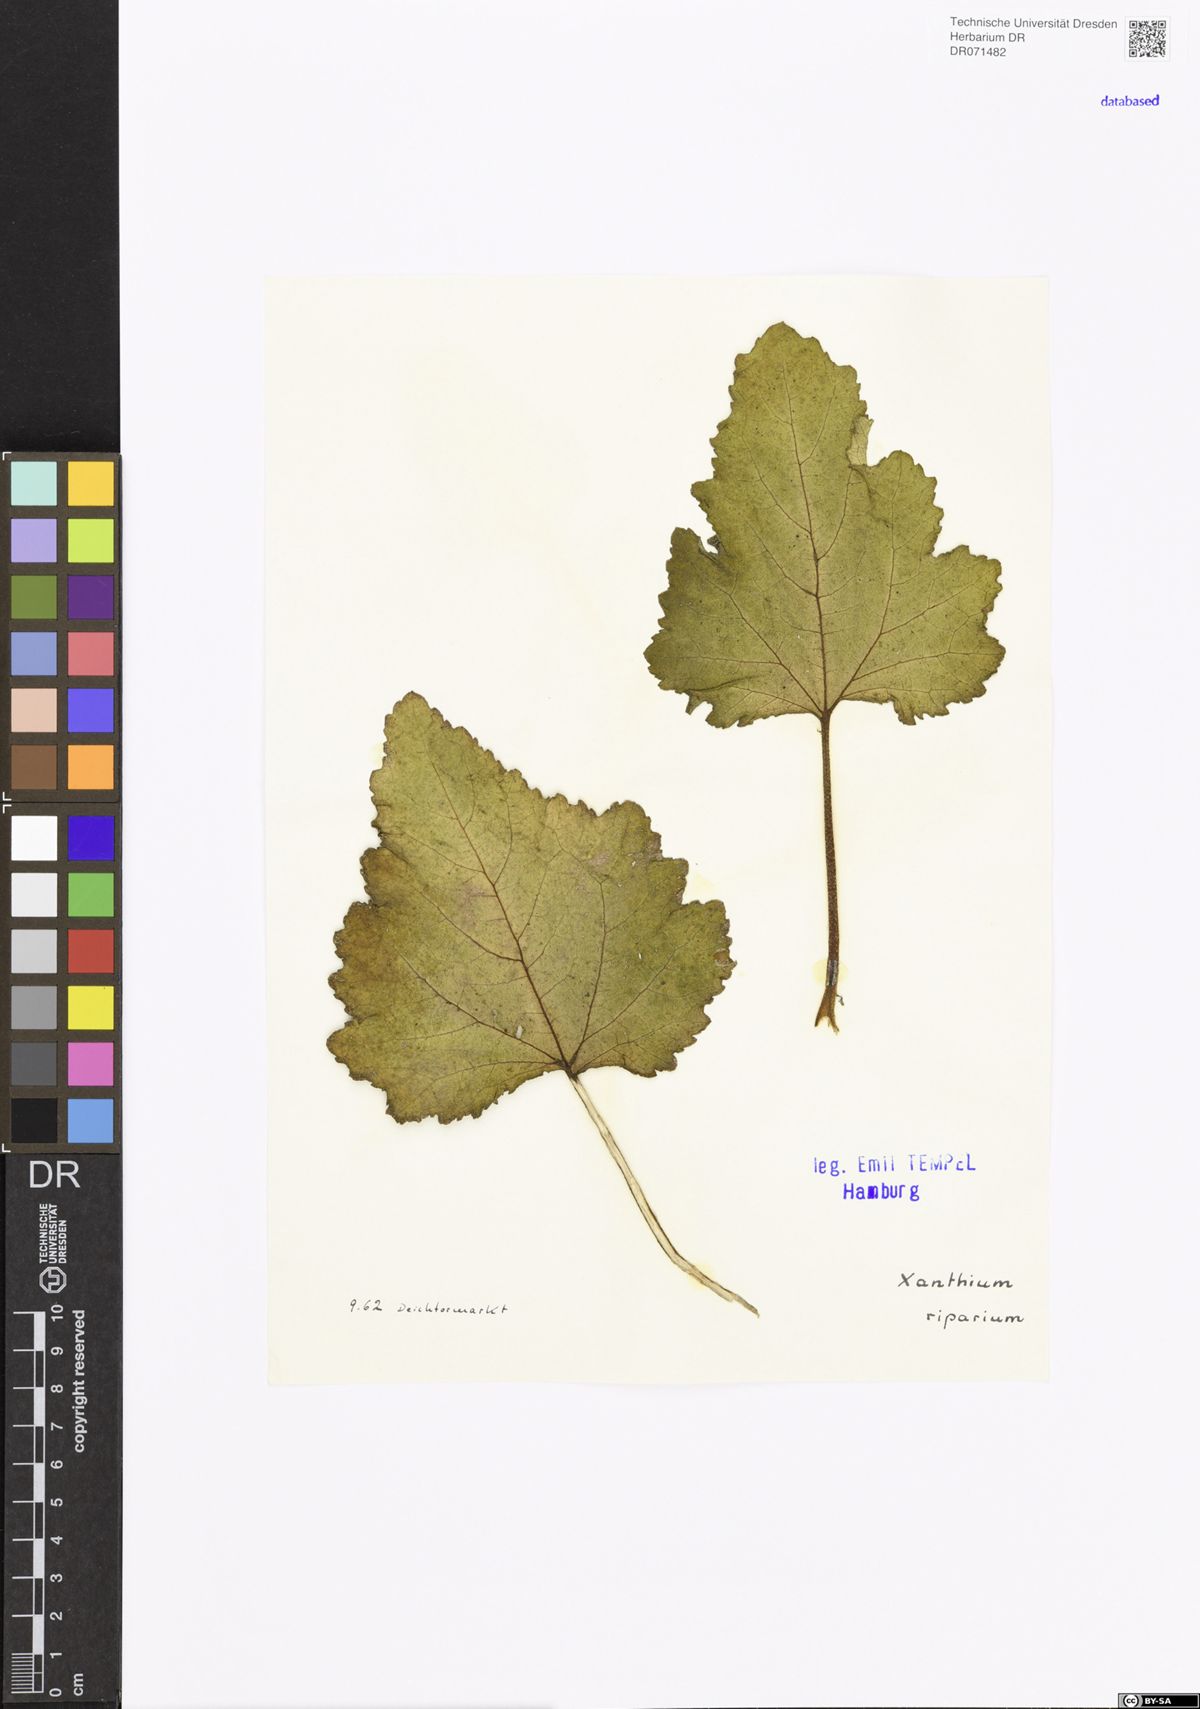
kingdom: Plantae
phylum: Tracheophyta
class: Magnoliopsida
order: Asterales
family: Asteraceae
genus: Xanthium
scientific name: Xanthium orientale
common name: Californian burr
